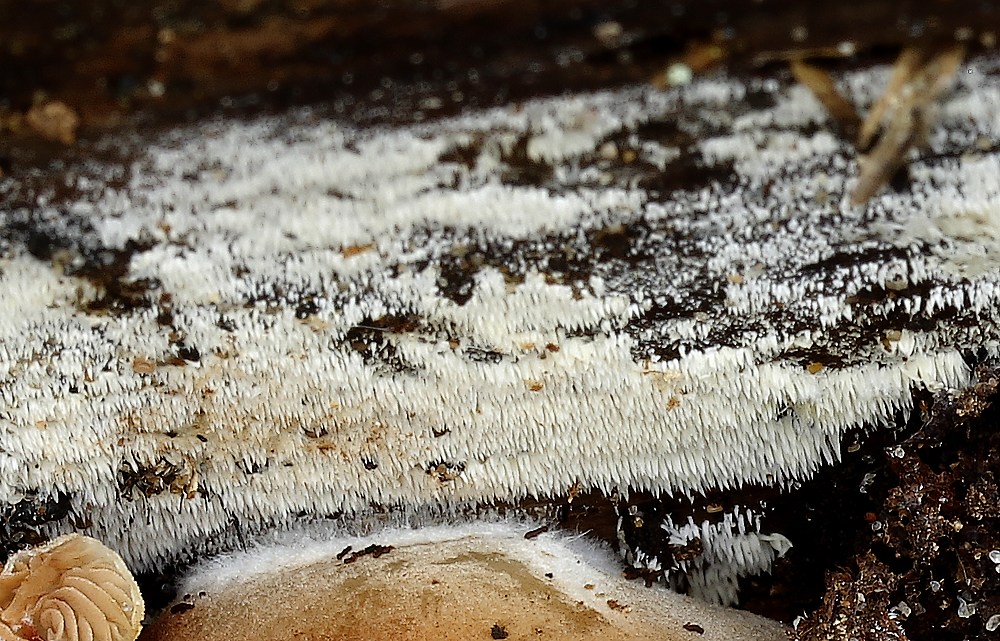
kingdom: Fungi
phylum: Basidiomycota
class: Agaricomycetes
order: Agaricales
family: Clavariaceae
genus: Mucronella
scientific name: Mucronella calva
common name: hvid hængepig
